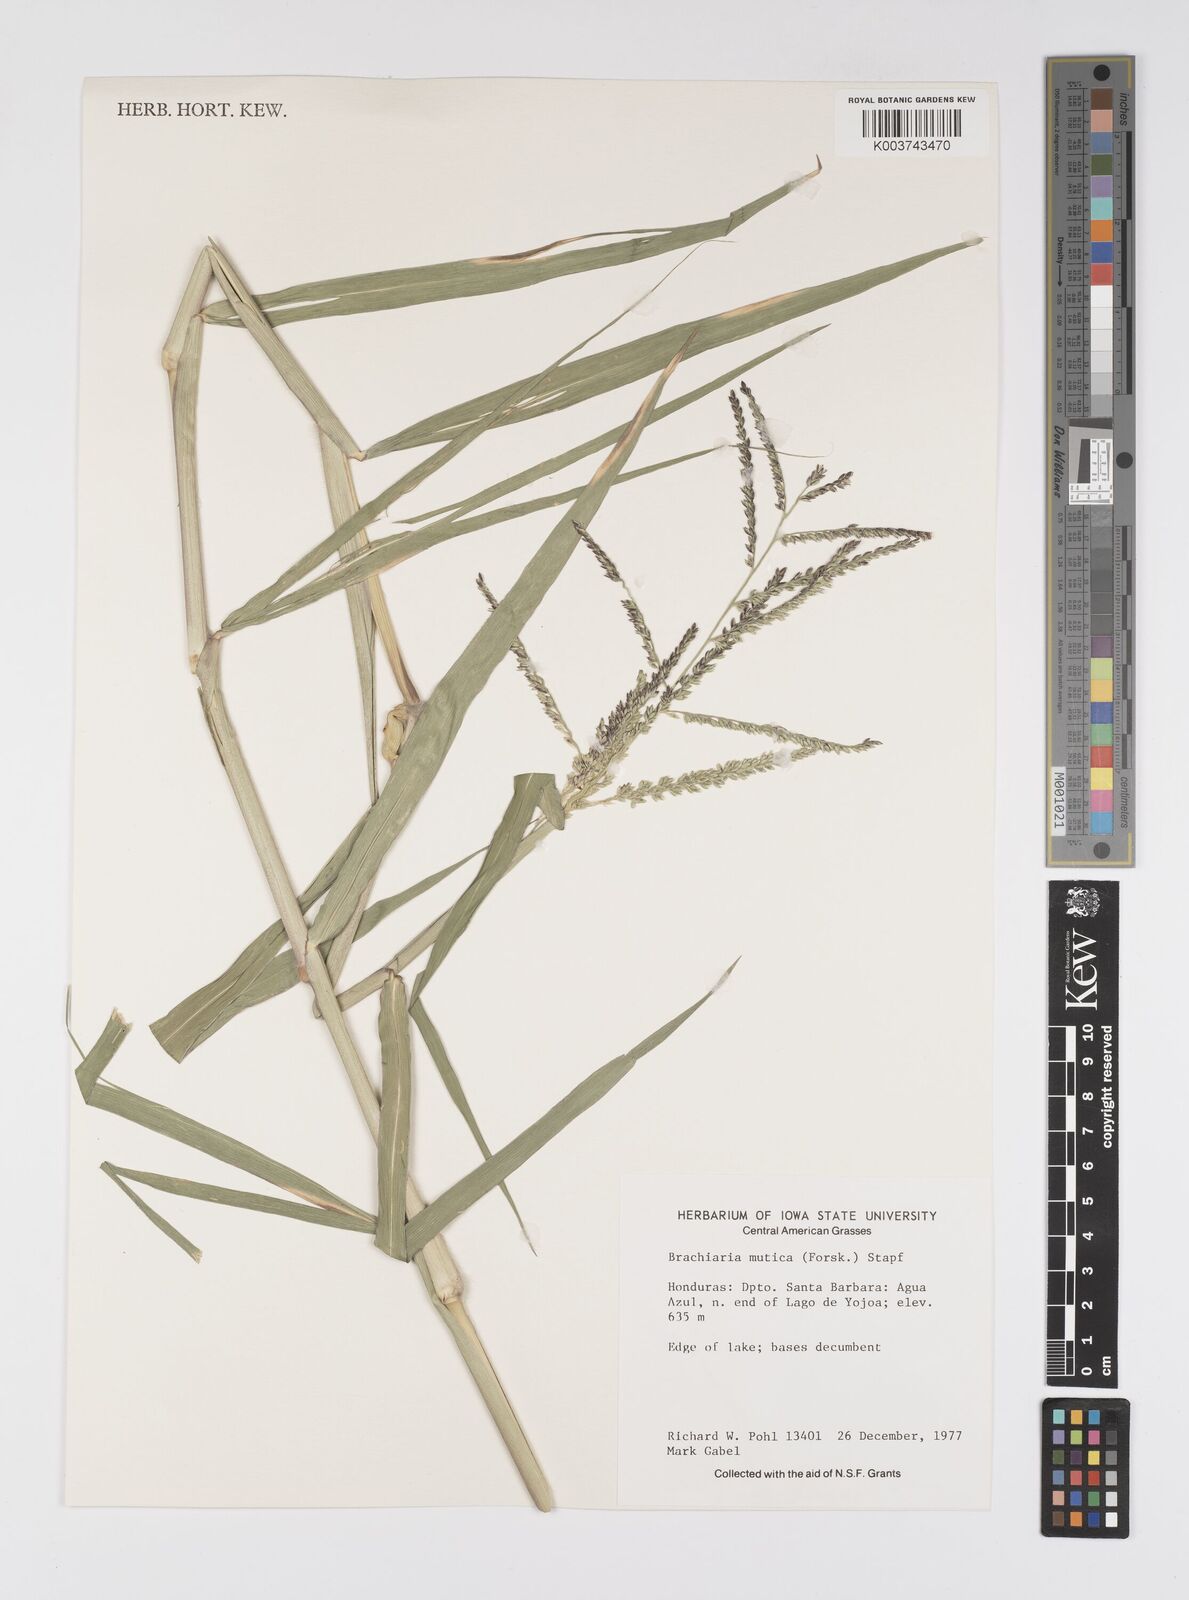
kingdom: Plantae
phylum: Tracheophyta
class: Liliopsida
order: Poales
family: Poaceae
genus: Urochloa
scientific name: Urochloa mutica
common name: Para grass
